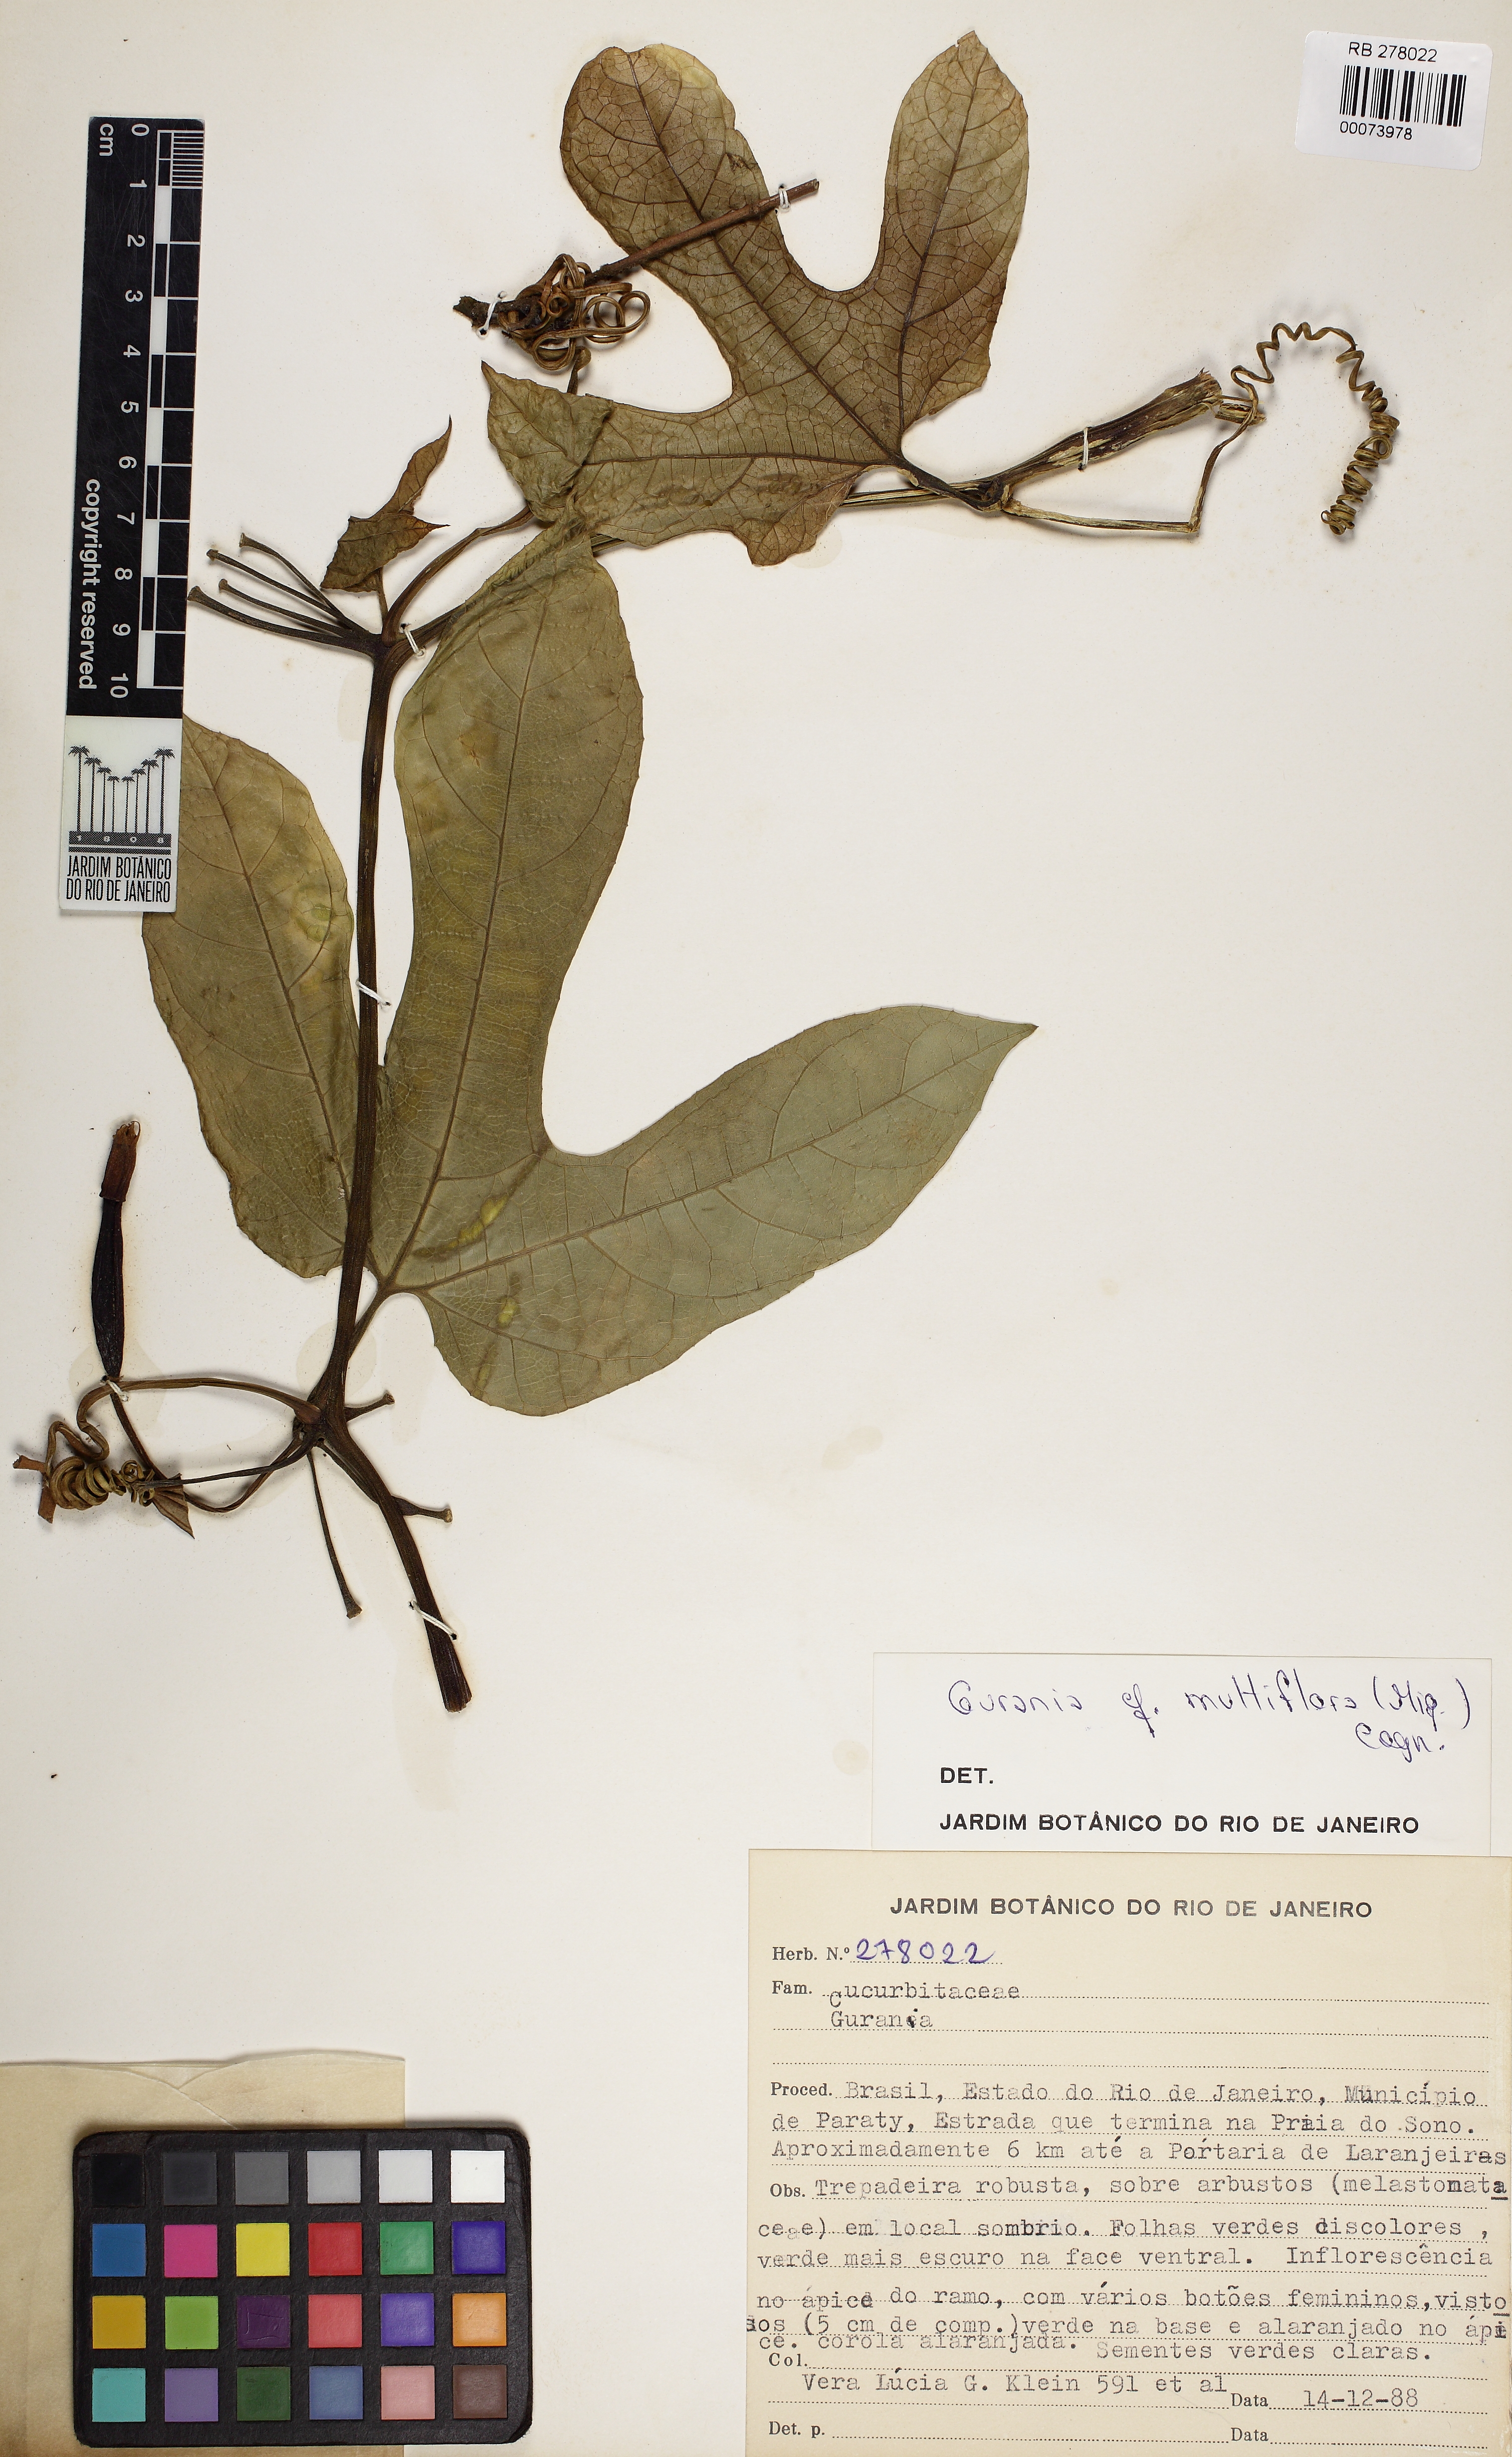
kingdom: Plantae
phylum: Tracheophyta
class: Magnoliopsida
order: Cucurbitales
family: Cucurbitaceae
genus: Gurania
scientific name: Gurania subumbellata
